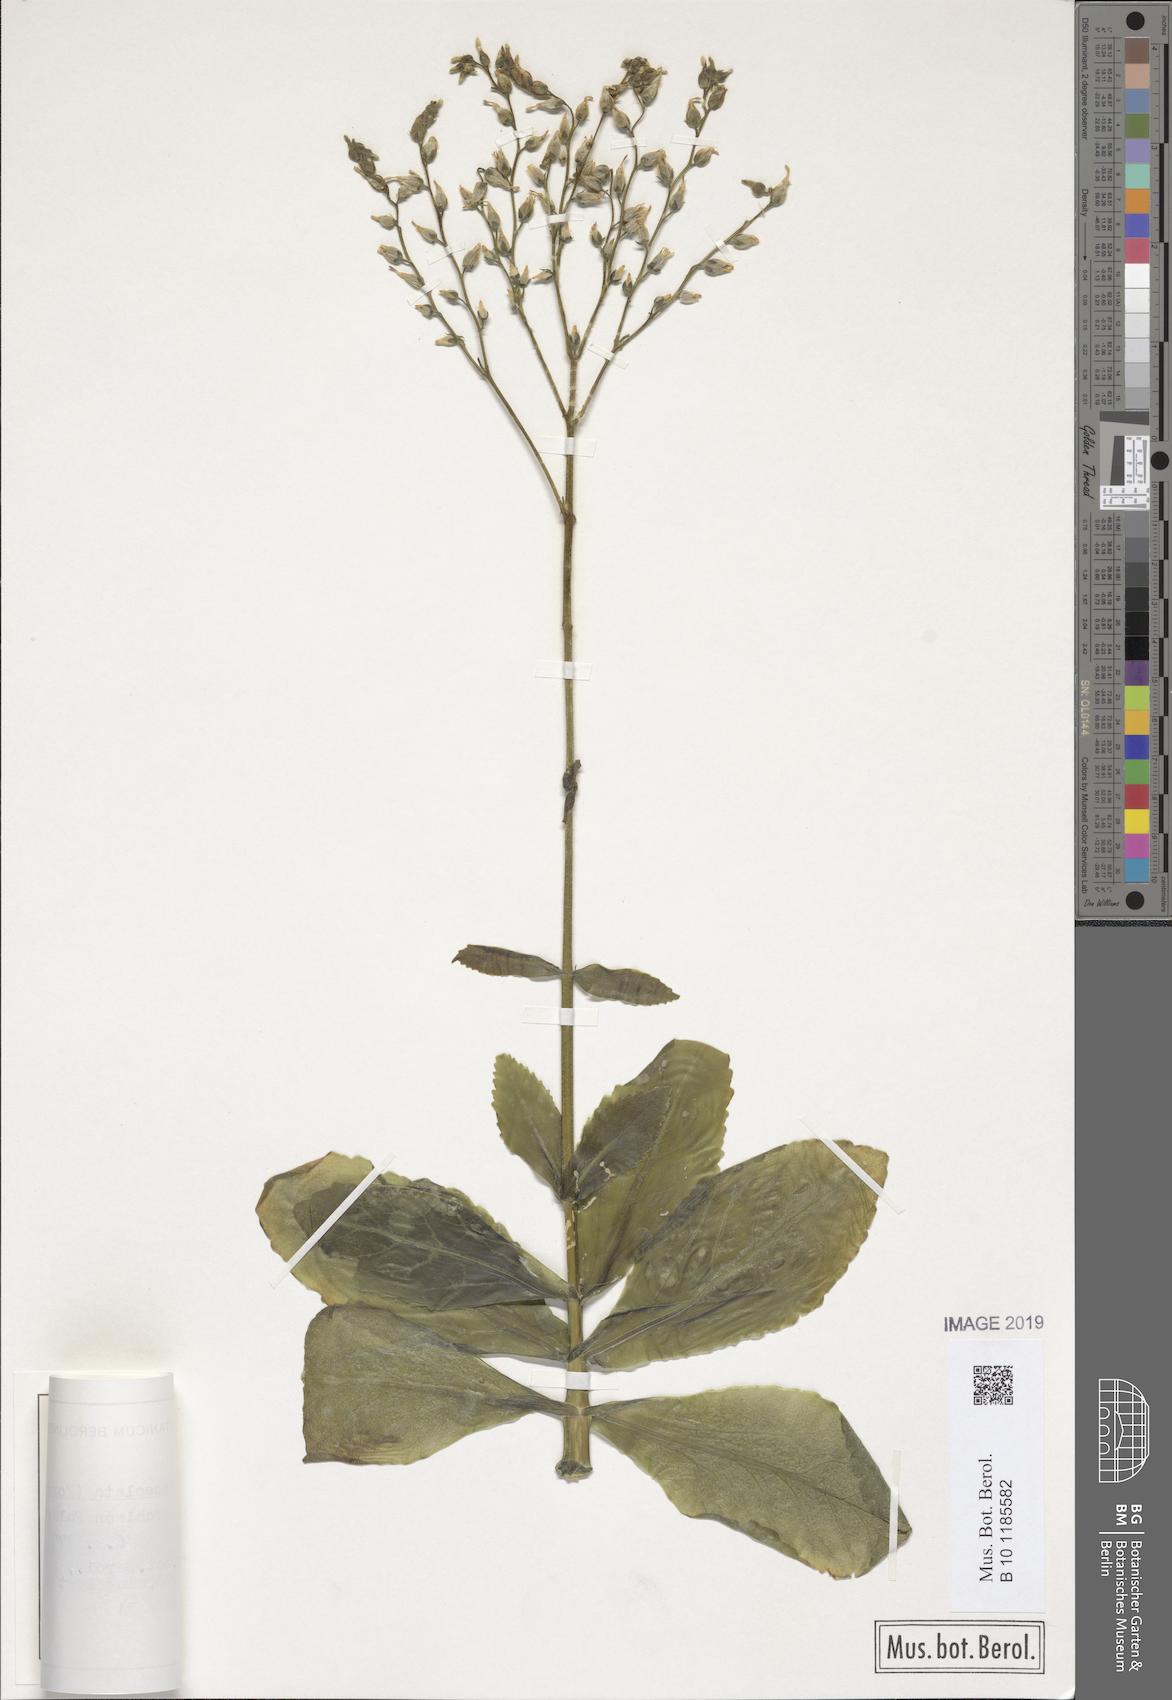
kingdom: Plantae
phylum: Tracheophyta
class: Magnoliopsida
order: Saxifragales
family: Crassulaceae
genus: Kalanchoe
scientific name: Kalanchoe lanceolata
